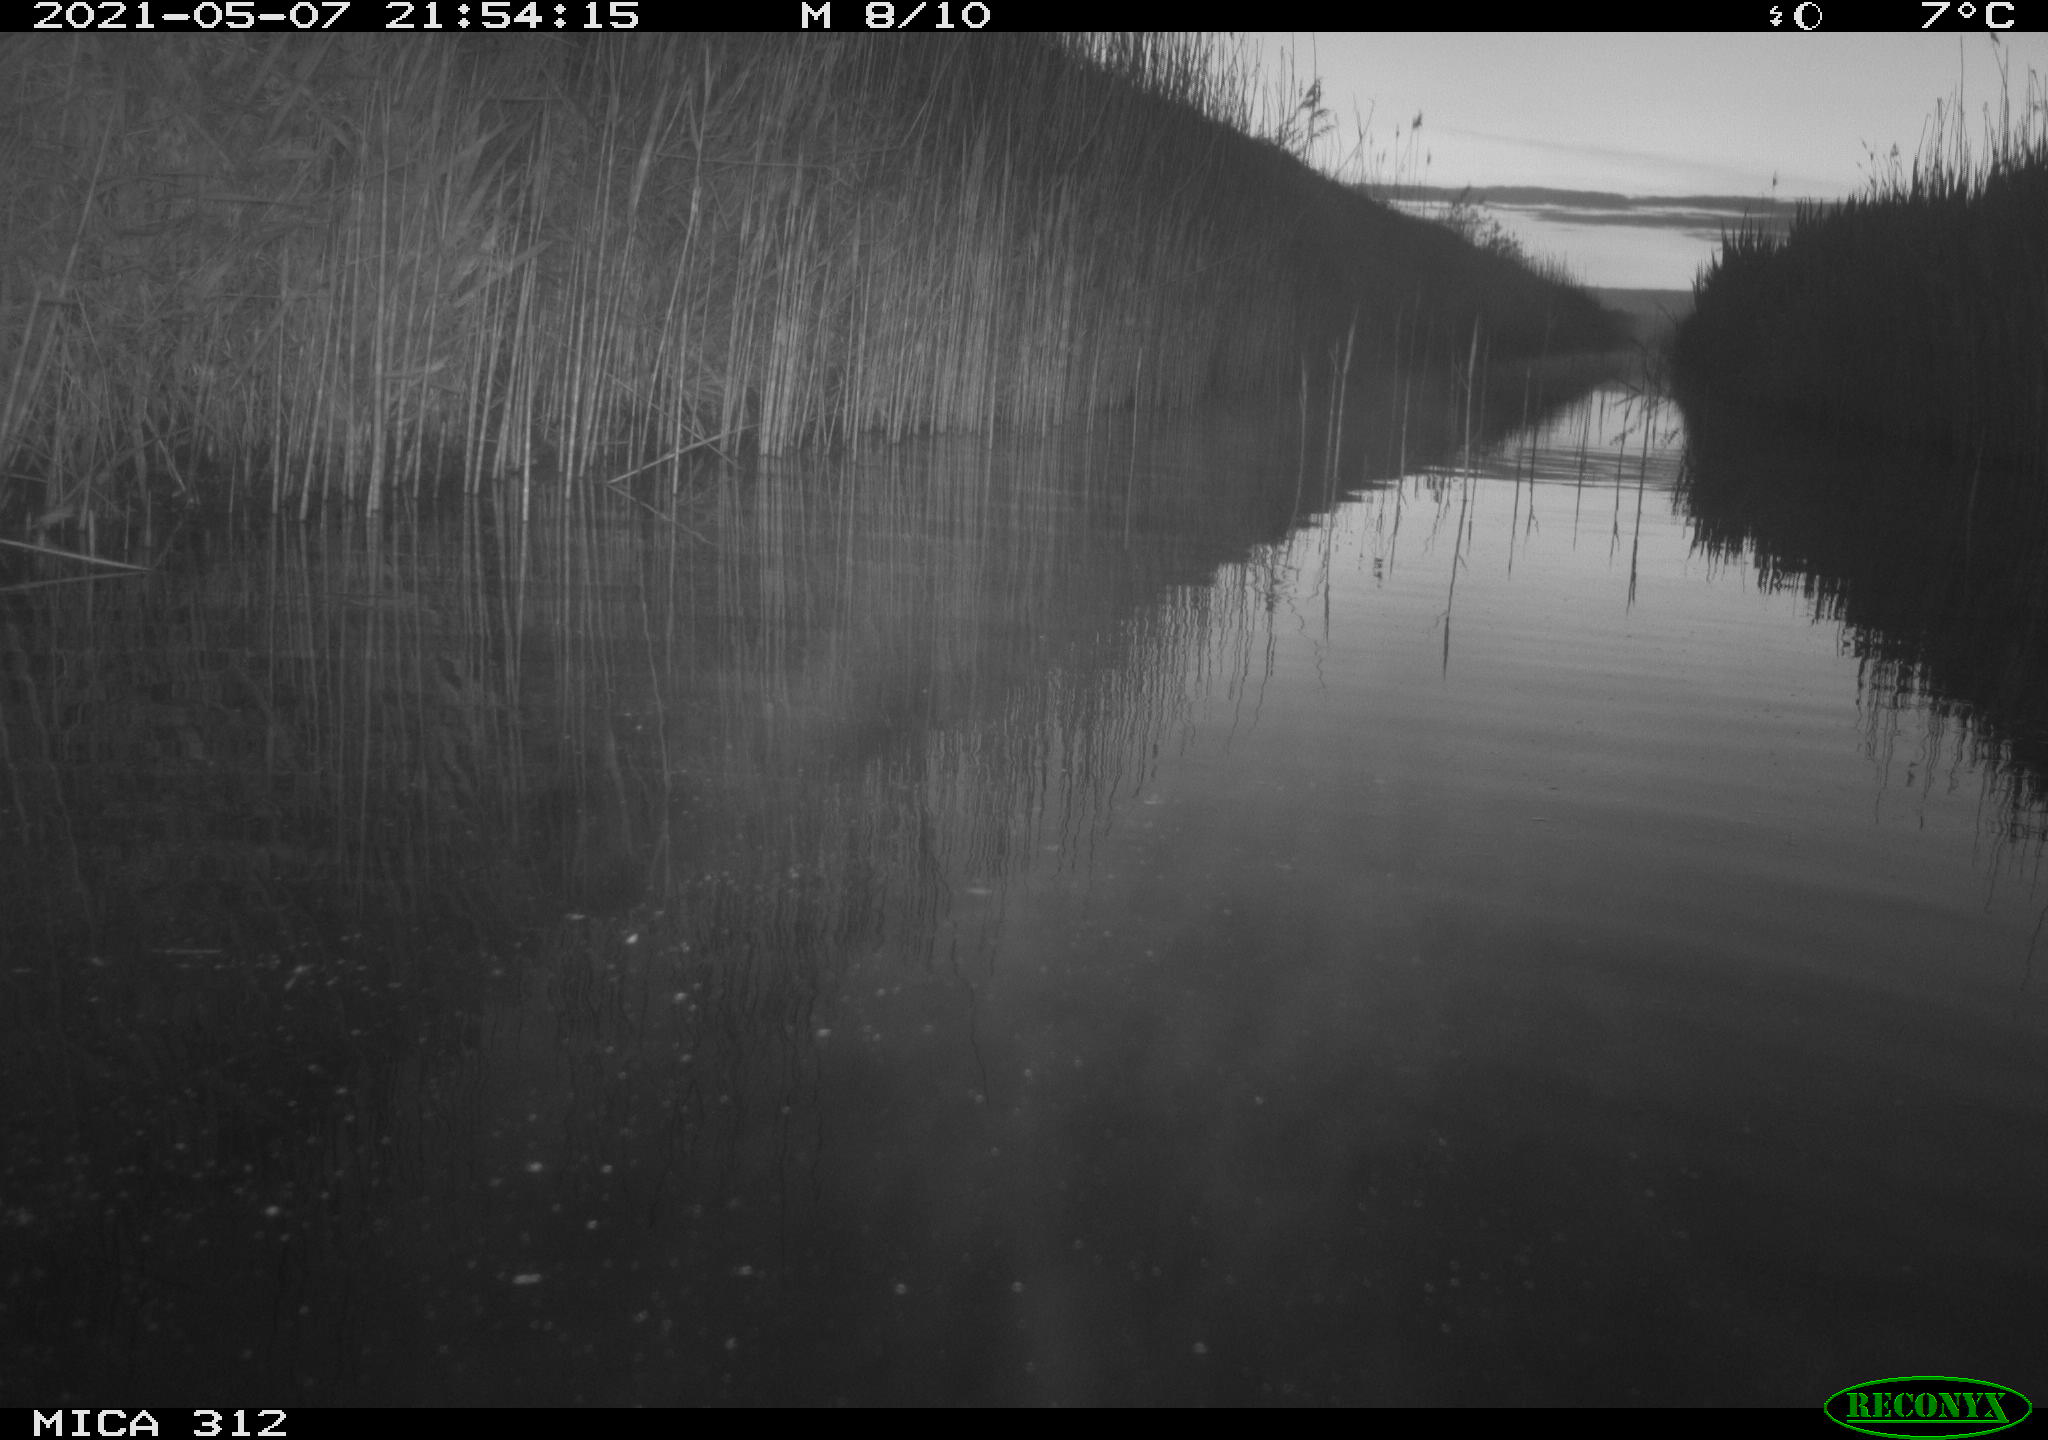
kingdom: Animalia
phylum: Chordata
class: Mammalia
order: Rodentia
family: Muridae
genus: Rattus
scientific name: Rattus norvegicus
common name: Brown rat
